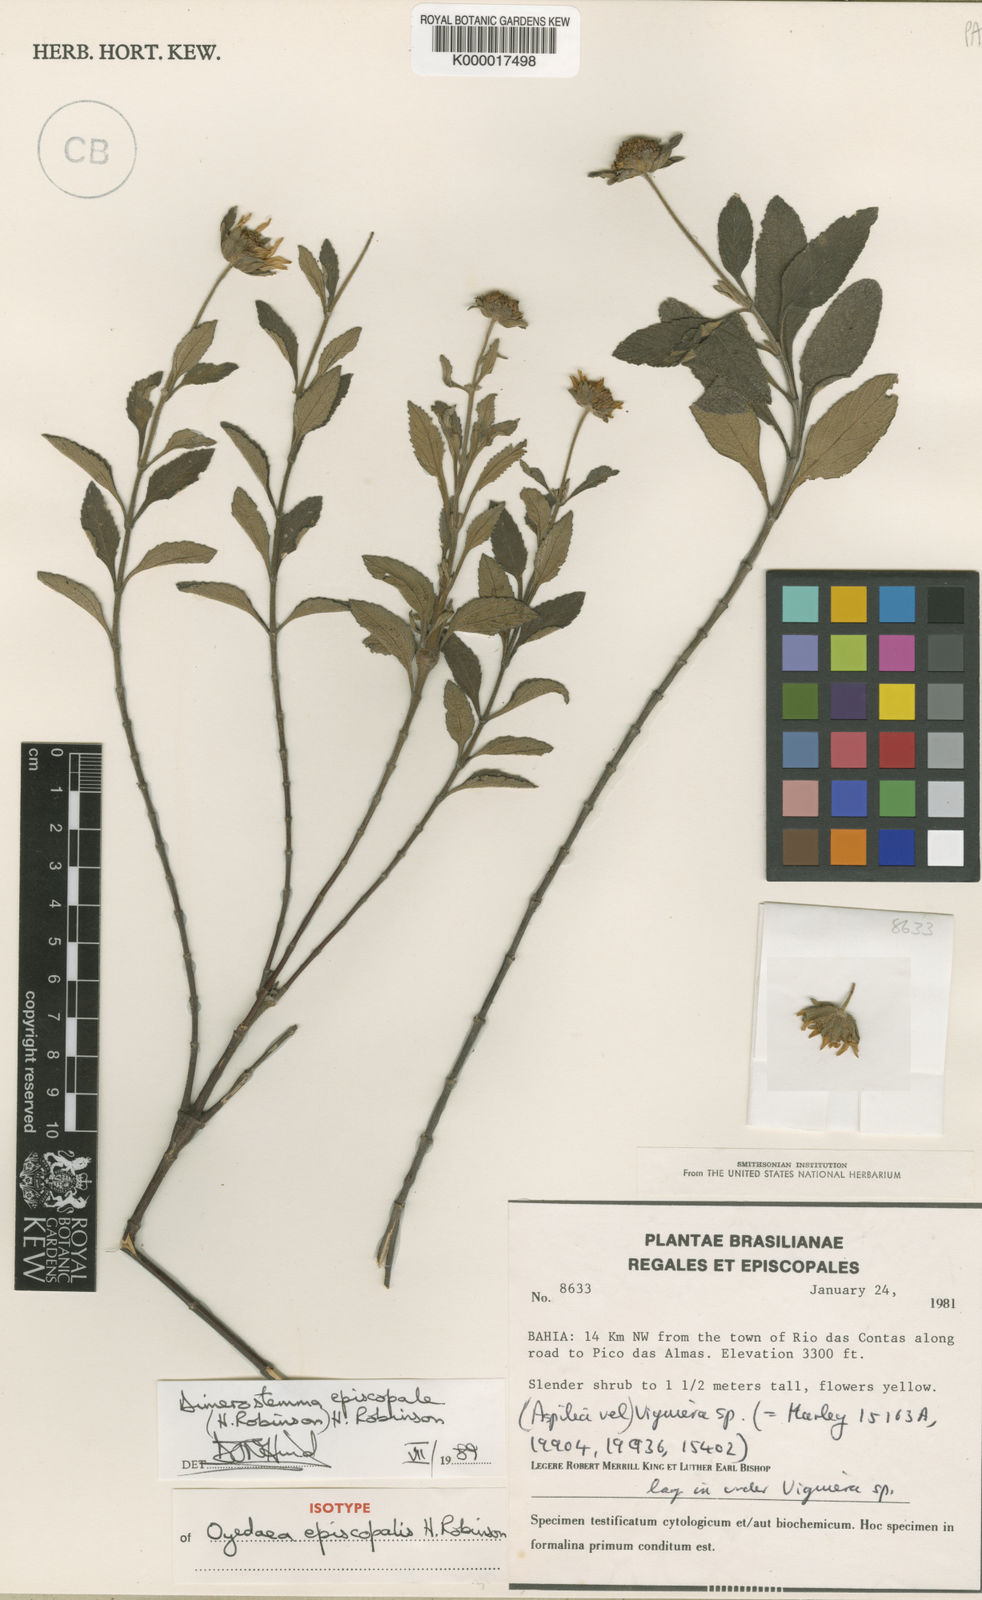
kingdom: Plantae
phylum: Tracheophyta
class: Magnoliopsida
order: Asterales
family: Asteraceae
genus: Dimerostemma
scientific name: Dimerostemma episcopale
